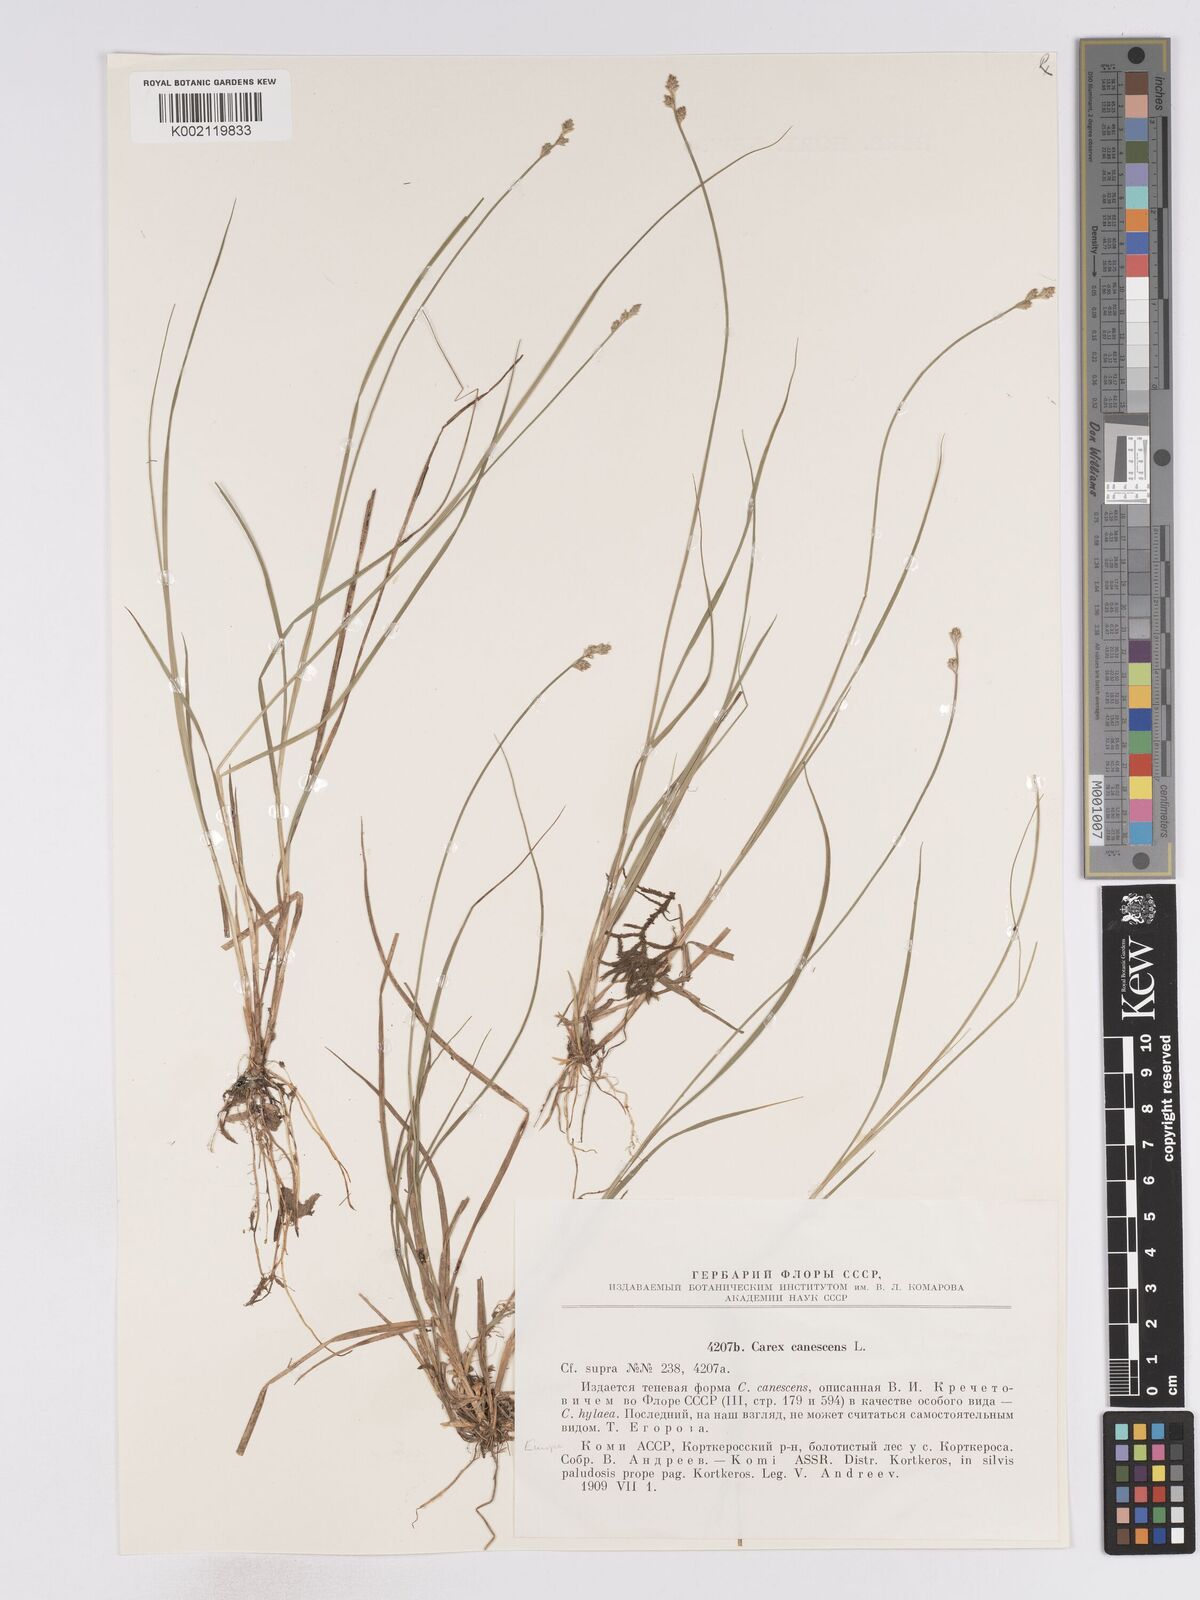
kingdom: Plantae
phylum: Tracheophyta
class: Liliopsida
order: Poales
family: Cyperaceae
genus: Carex
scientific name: Carex curta
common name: White sedge
